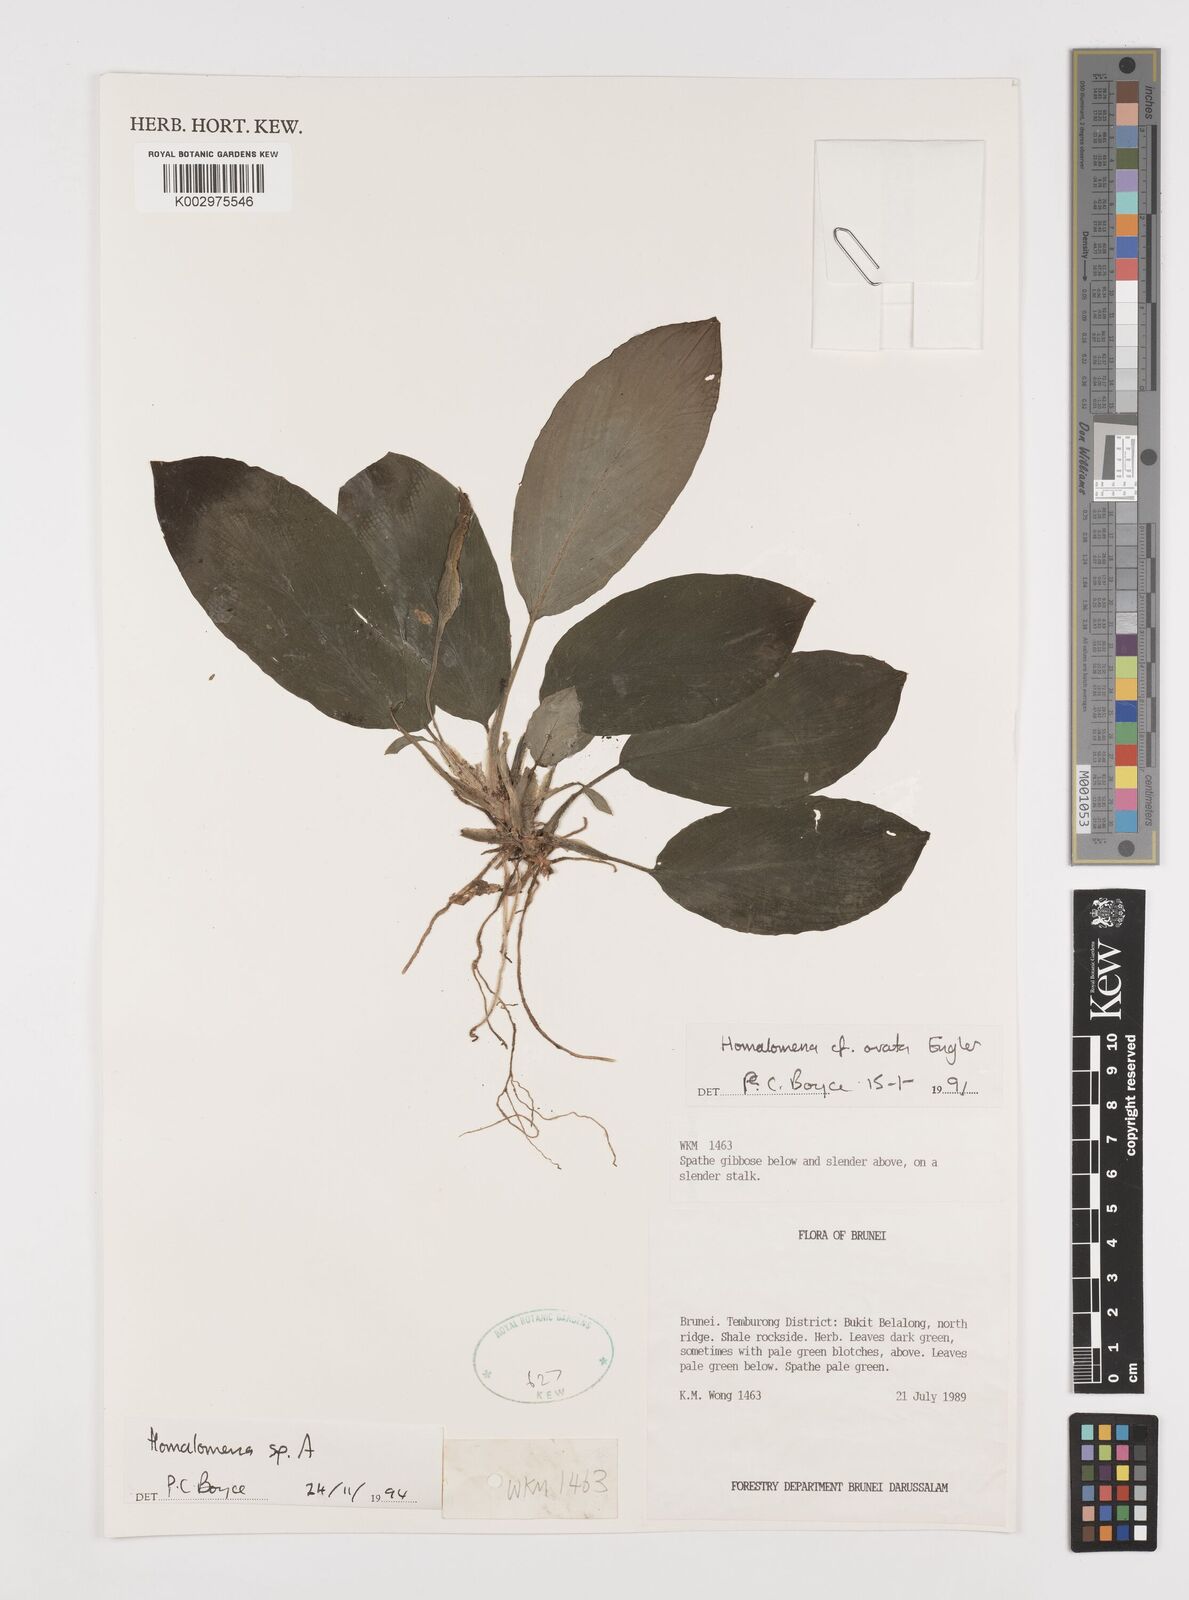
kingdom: Plantae
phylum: Tracheophyta
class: Liliopsida
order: Alismatales
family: Araceae
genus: Homalomena
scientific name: Homalomena
